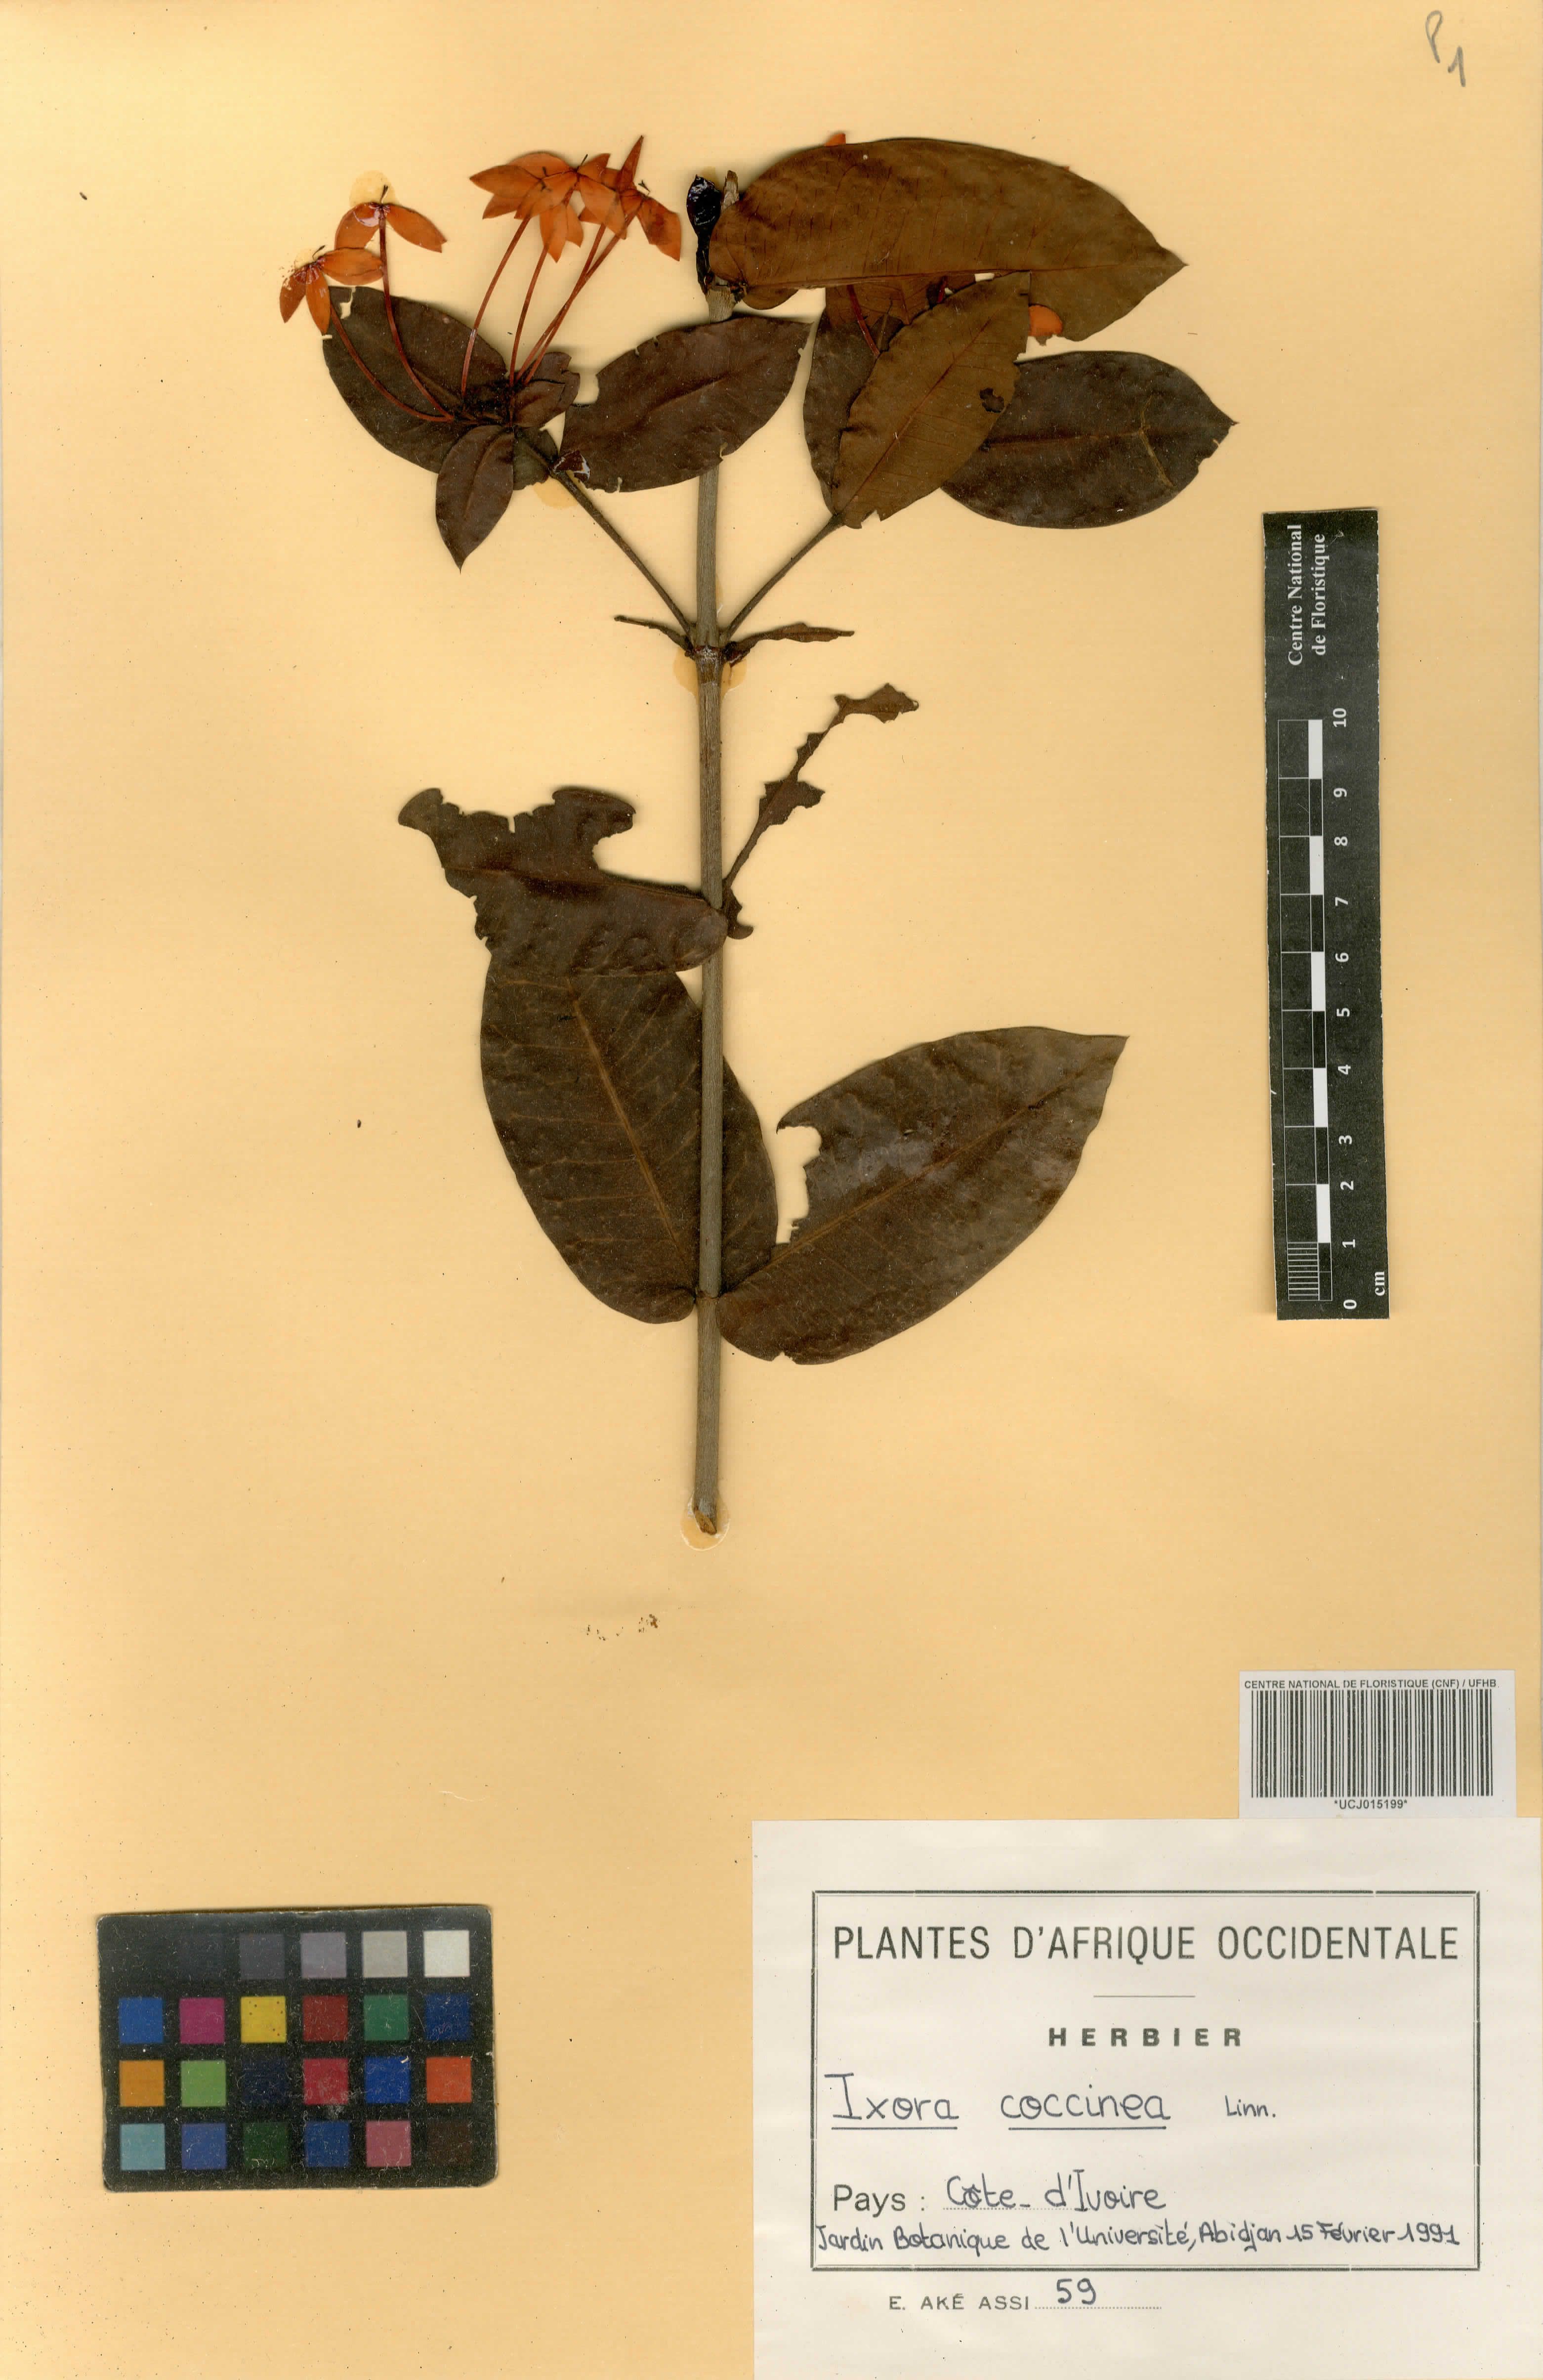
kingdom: Plantae
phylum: Tracheophyta
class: Magnoliopsida
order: Gentianales
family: Rubiaceae
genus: Ixora
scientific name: Ixora coccinea
